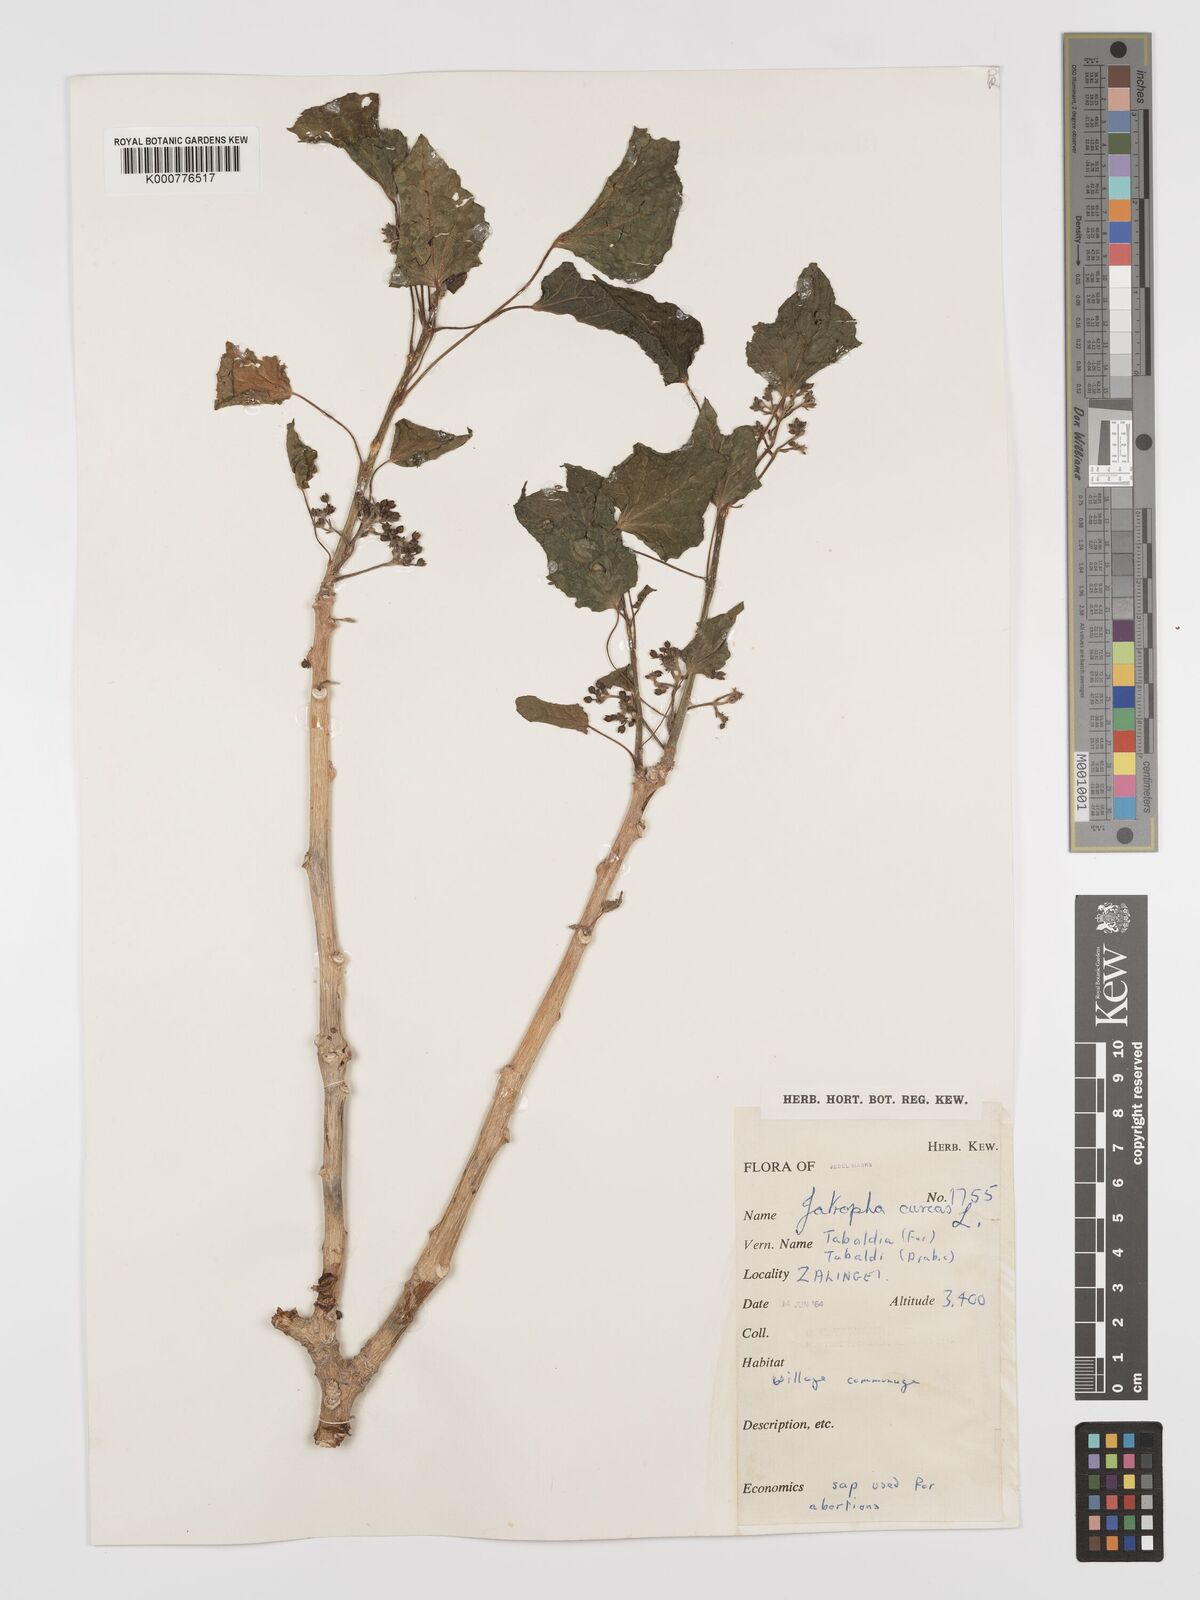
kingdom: Plantae
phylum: Tracheophyta
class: Magnoliopsida
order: Malpighiales
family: Euphorbiaceae
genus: Jatropha
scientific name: Jatropha curcas
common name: Barbados nut
